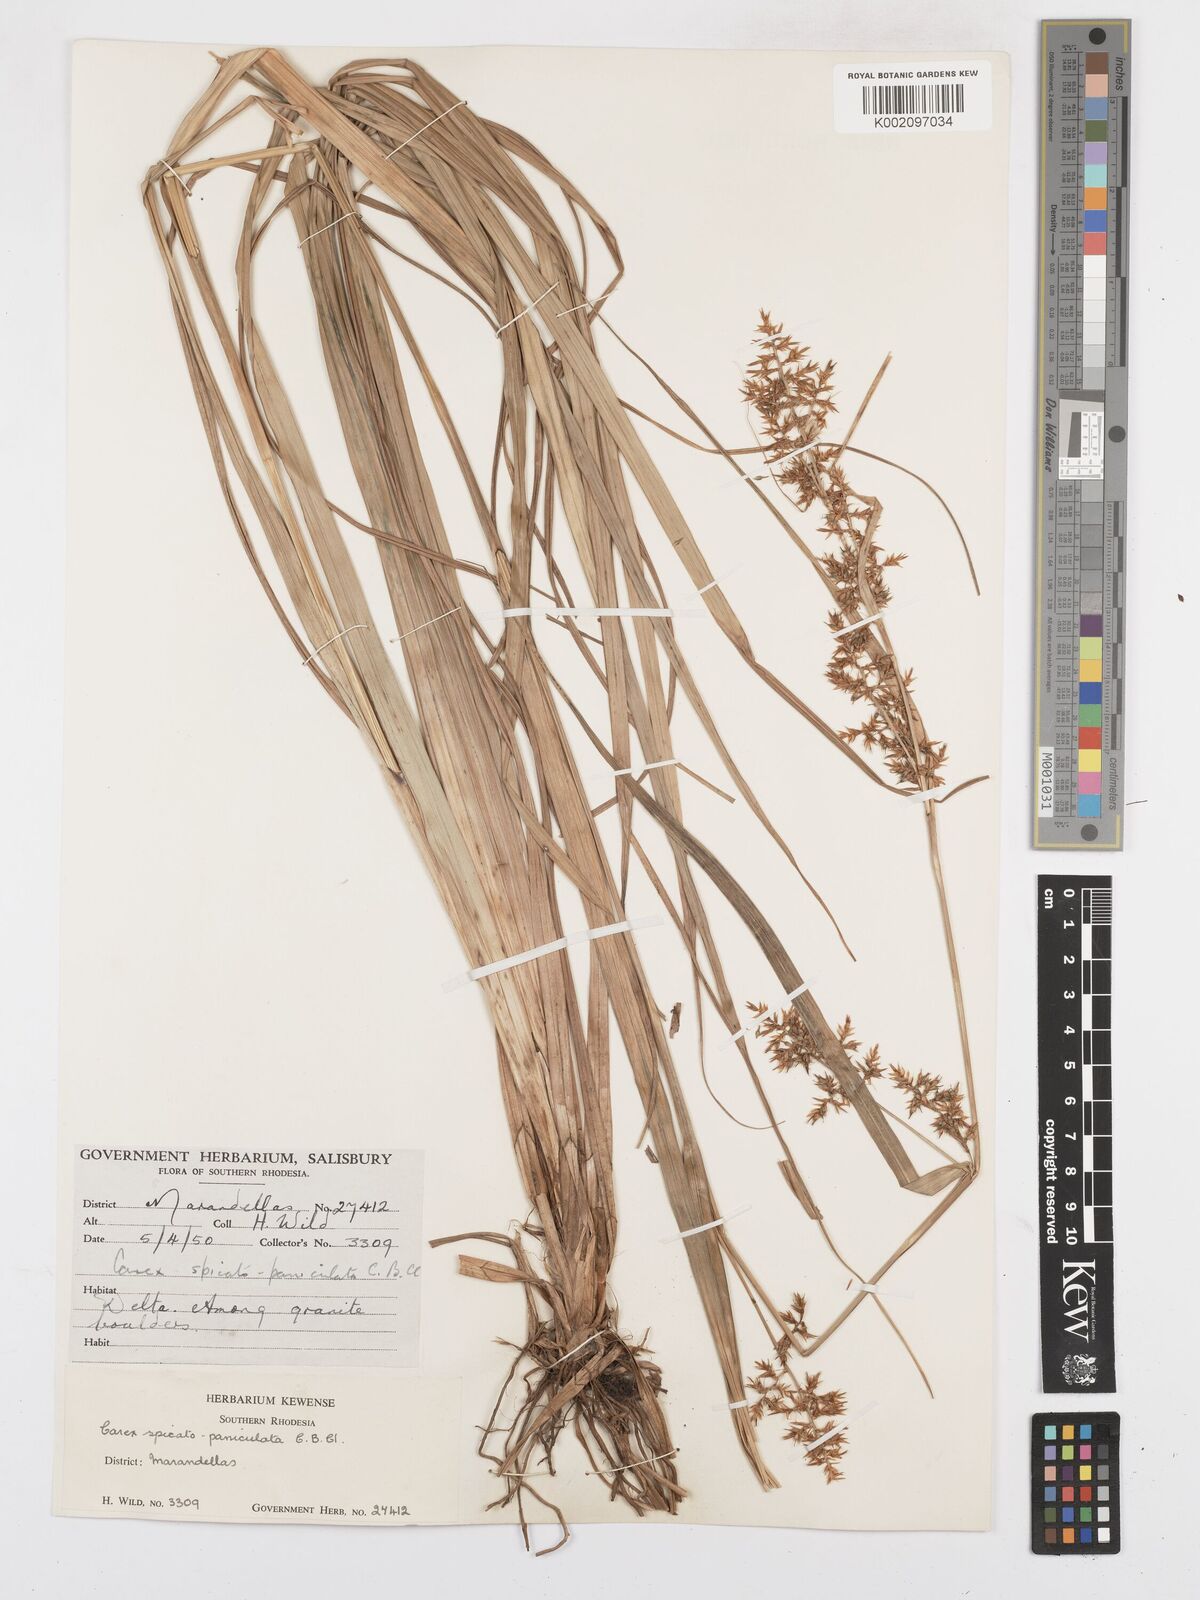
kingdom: Plantae
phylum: Tracheophyta
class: Liliopsida
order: Poales
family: Cyperaceae
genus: Carex
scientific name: Carex spicatopaniculata
